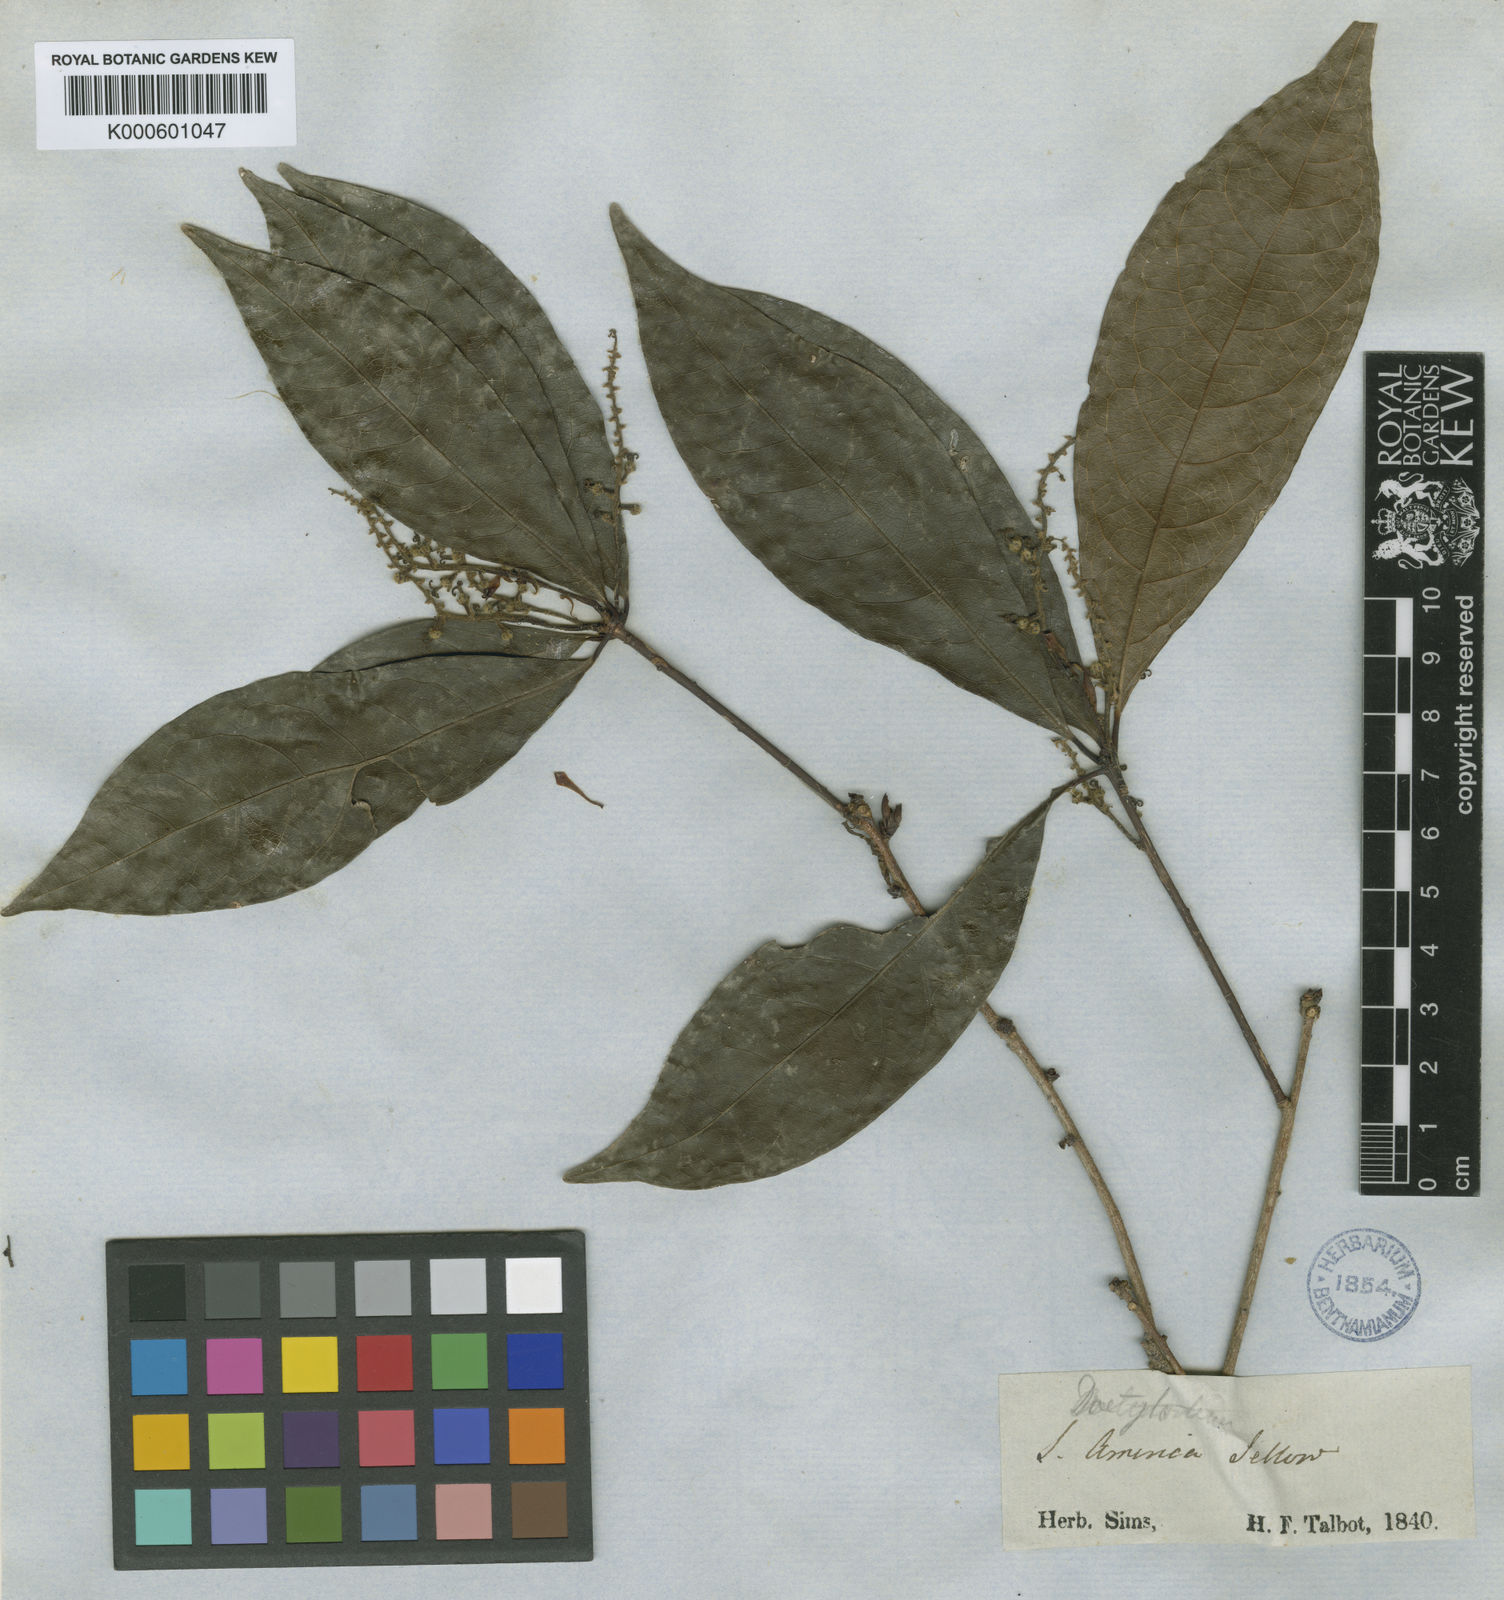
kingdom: Plantae
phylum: Tracheophyta
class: Magnoliopsida
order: Malpighiales
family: Euphorbiaceae
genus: Actinostemon
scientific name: Actinostemon
